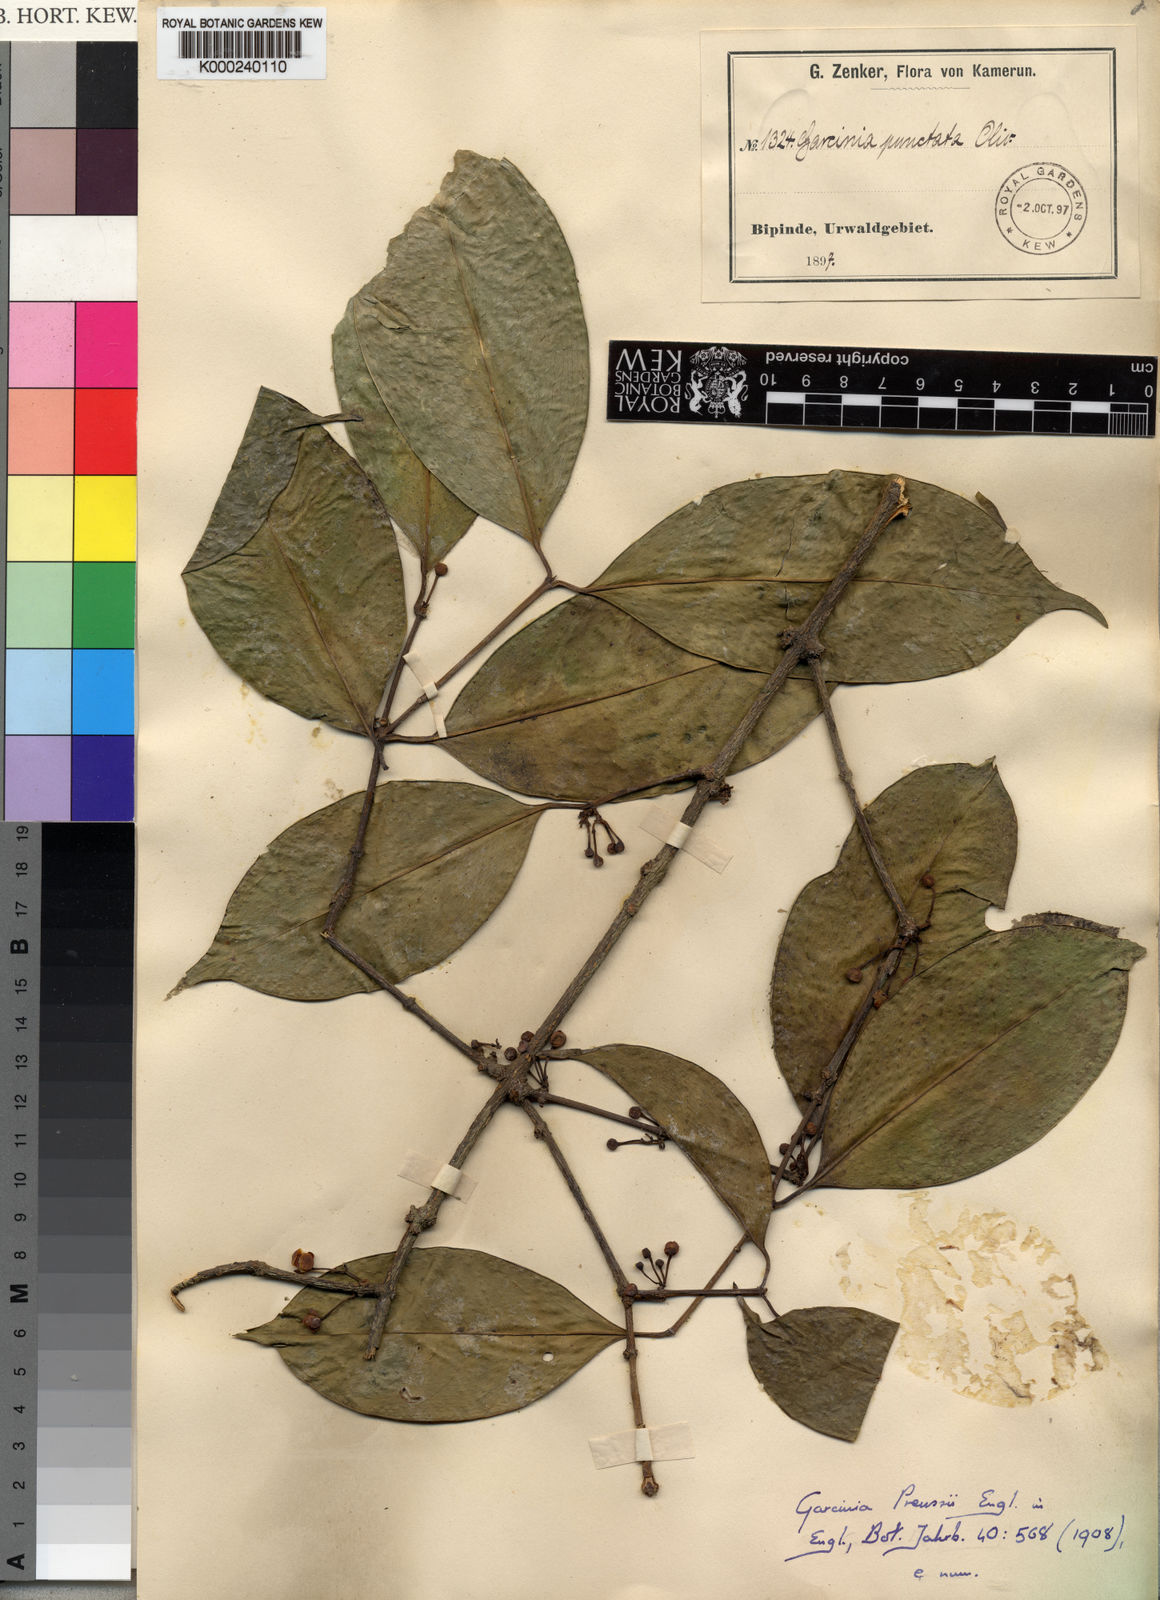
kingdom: Plantae
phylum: Tracheophyta
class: Magnoliopsida
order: Malpighiales
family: Clusiaceae
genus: Garcinia
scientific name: Garcinia preussii
